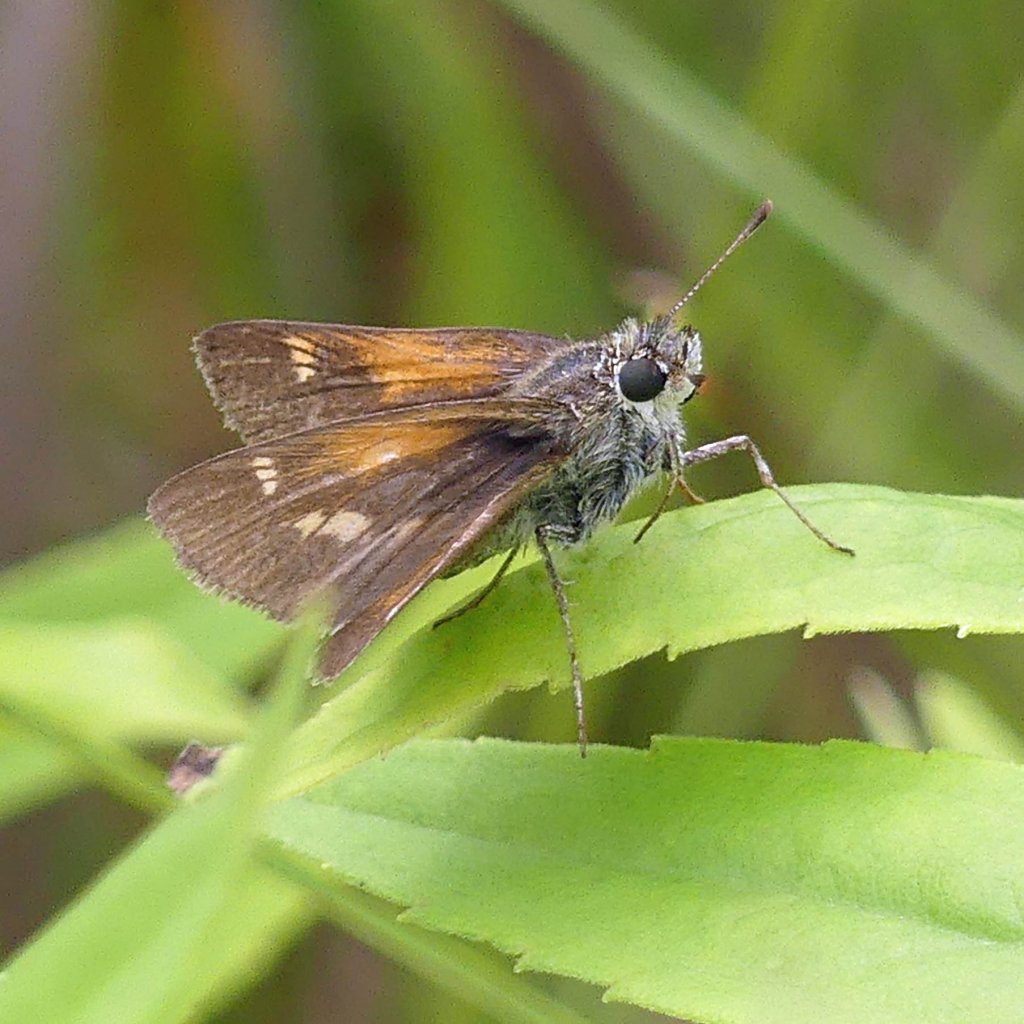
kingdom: Animalia
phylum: Arthropoda
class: Insecta
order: Lepidoptera
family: Hesperiidae
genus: Polites
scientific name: Polites themistocles
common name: Tawny-edged Skipper
